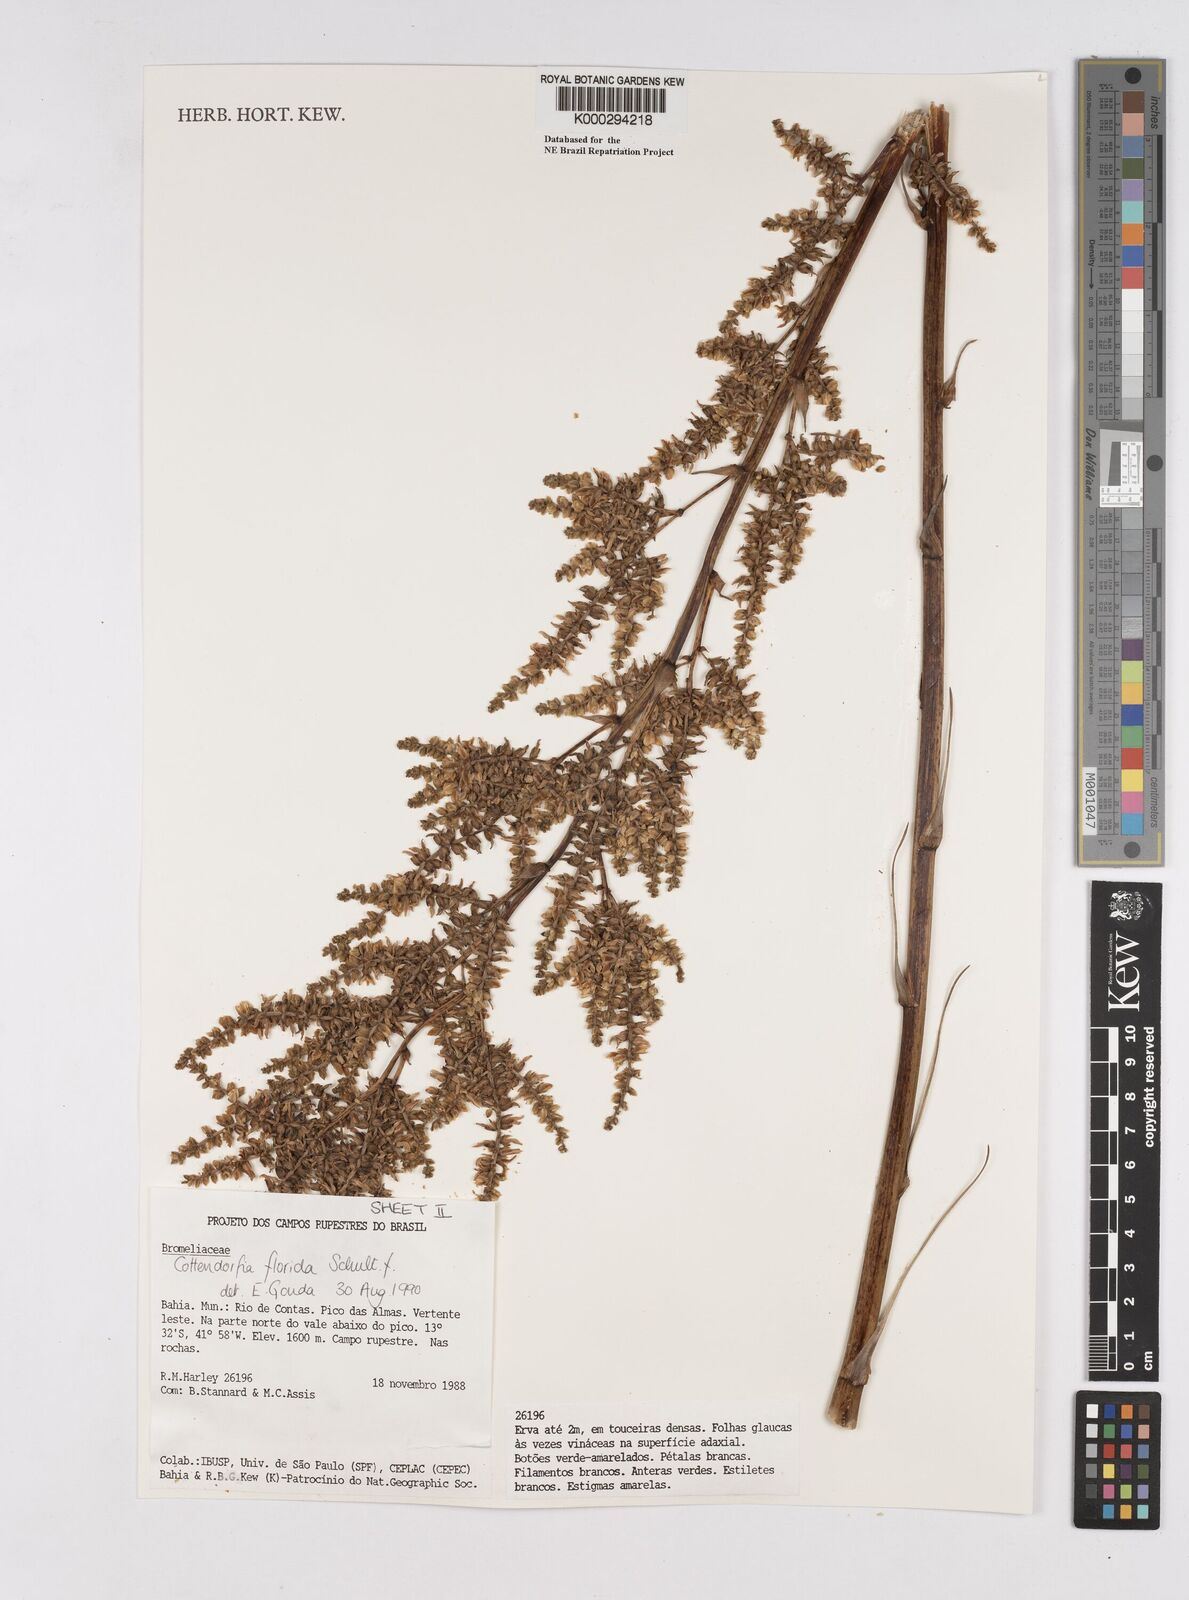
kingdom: Plantae
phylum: Tracheophyta
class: Liliopsida
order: Poales
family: Bromeliaceae
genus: Cottendorfia
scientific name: Cottendorfia florida
